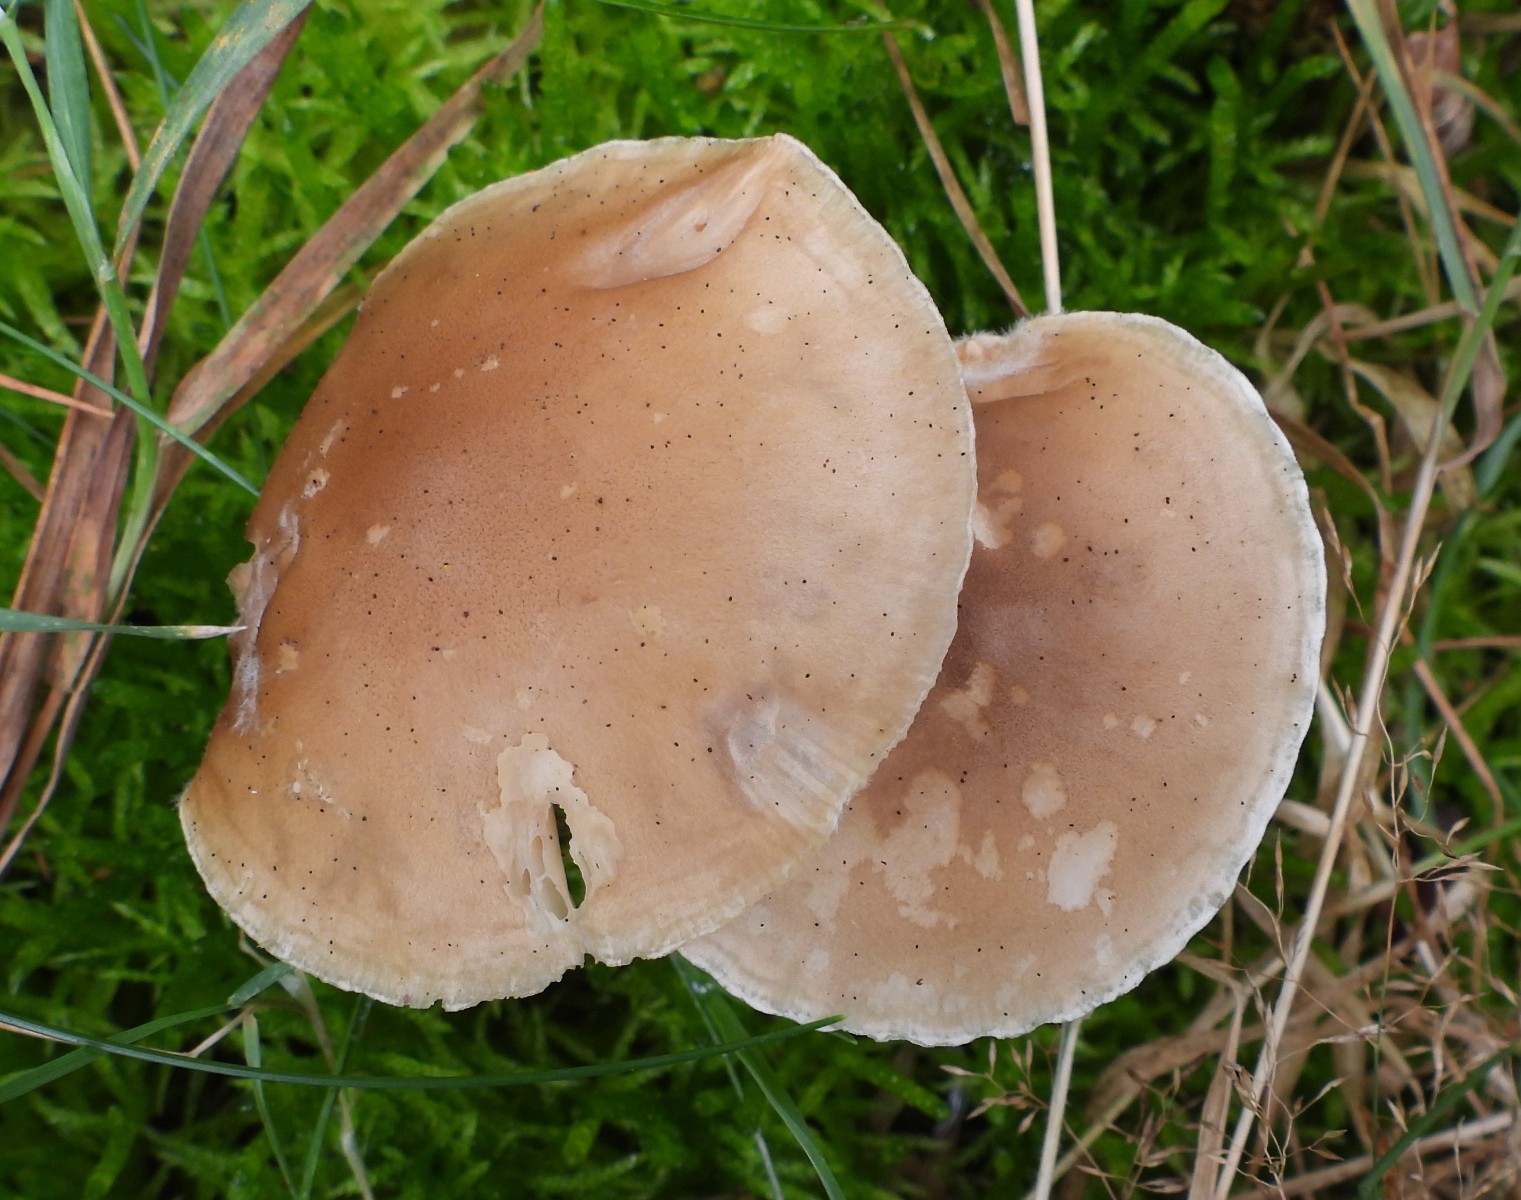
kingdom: Fungi
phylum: Basidiomycota
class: Agaricomycetes
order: Agaricales
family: Hygrophoraceae
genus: Ampulloclitocybe
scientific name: Ampulloclitocybe clavipes
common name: køllefod
